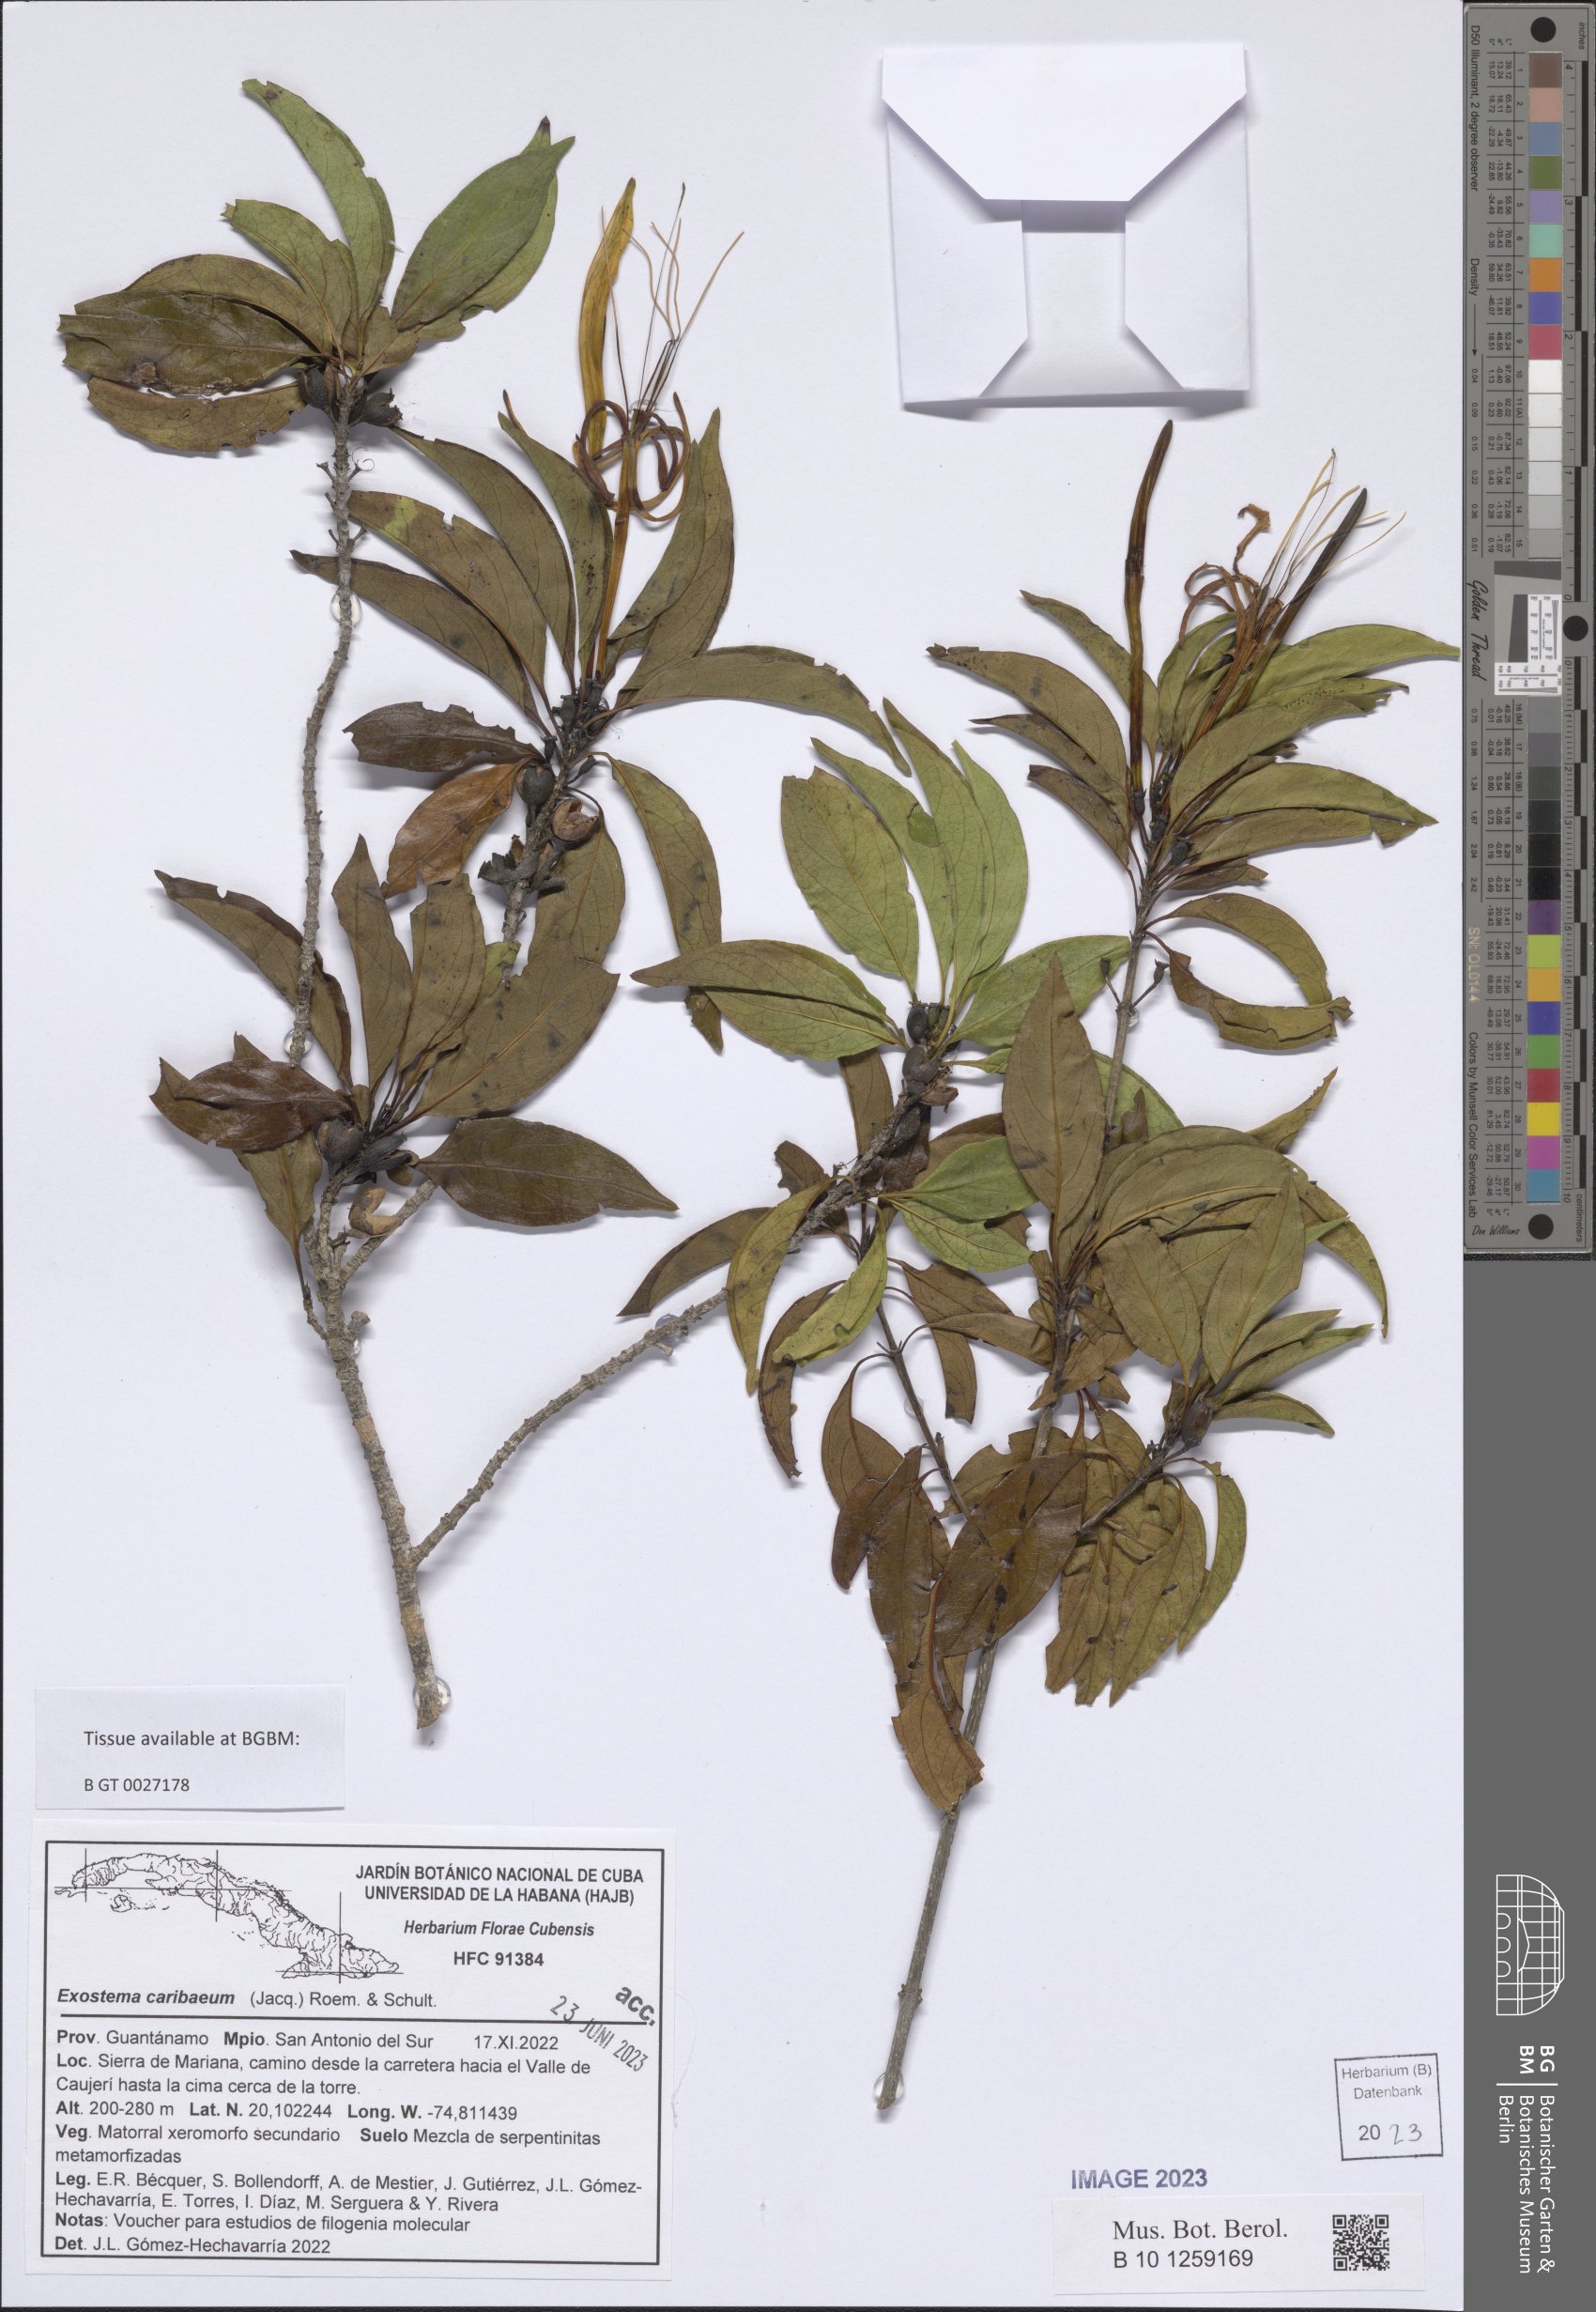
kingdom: Plantae
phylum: Tracheophyta
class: Magnoliopsida
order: Gentianales
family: Rubiaceae
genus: Exostema
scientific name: Exostema caribaeum
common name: Princewood
